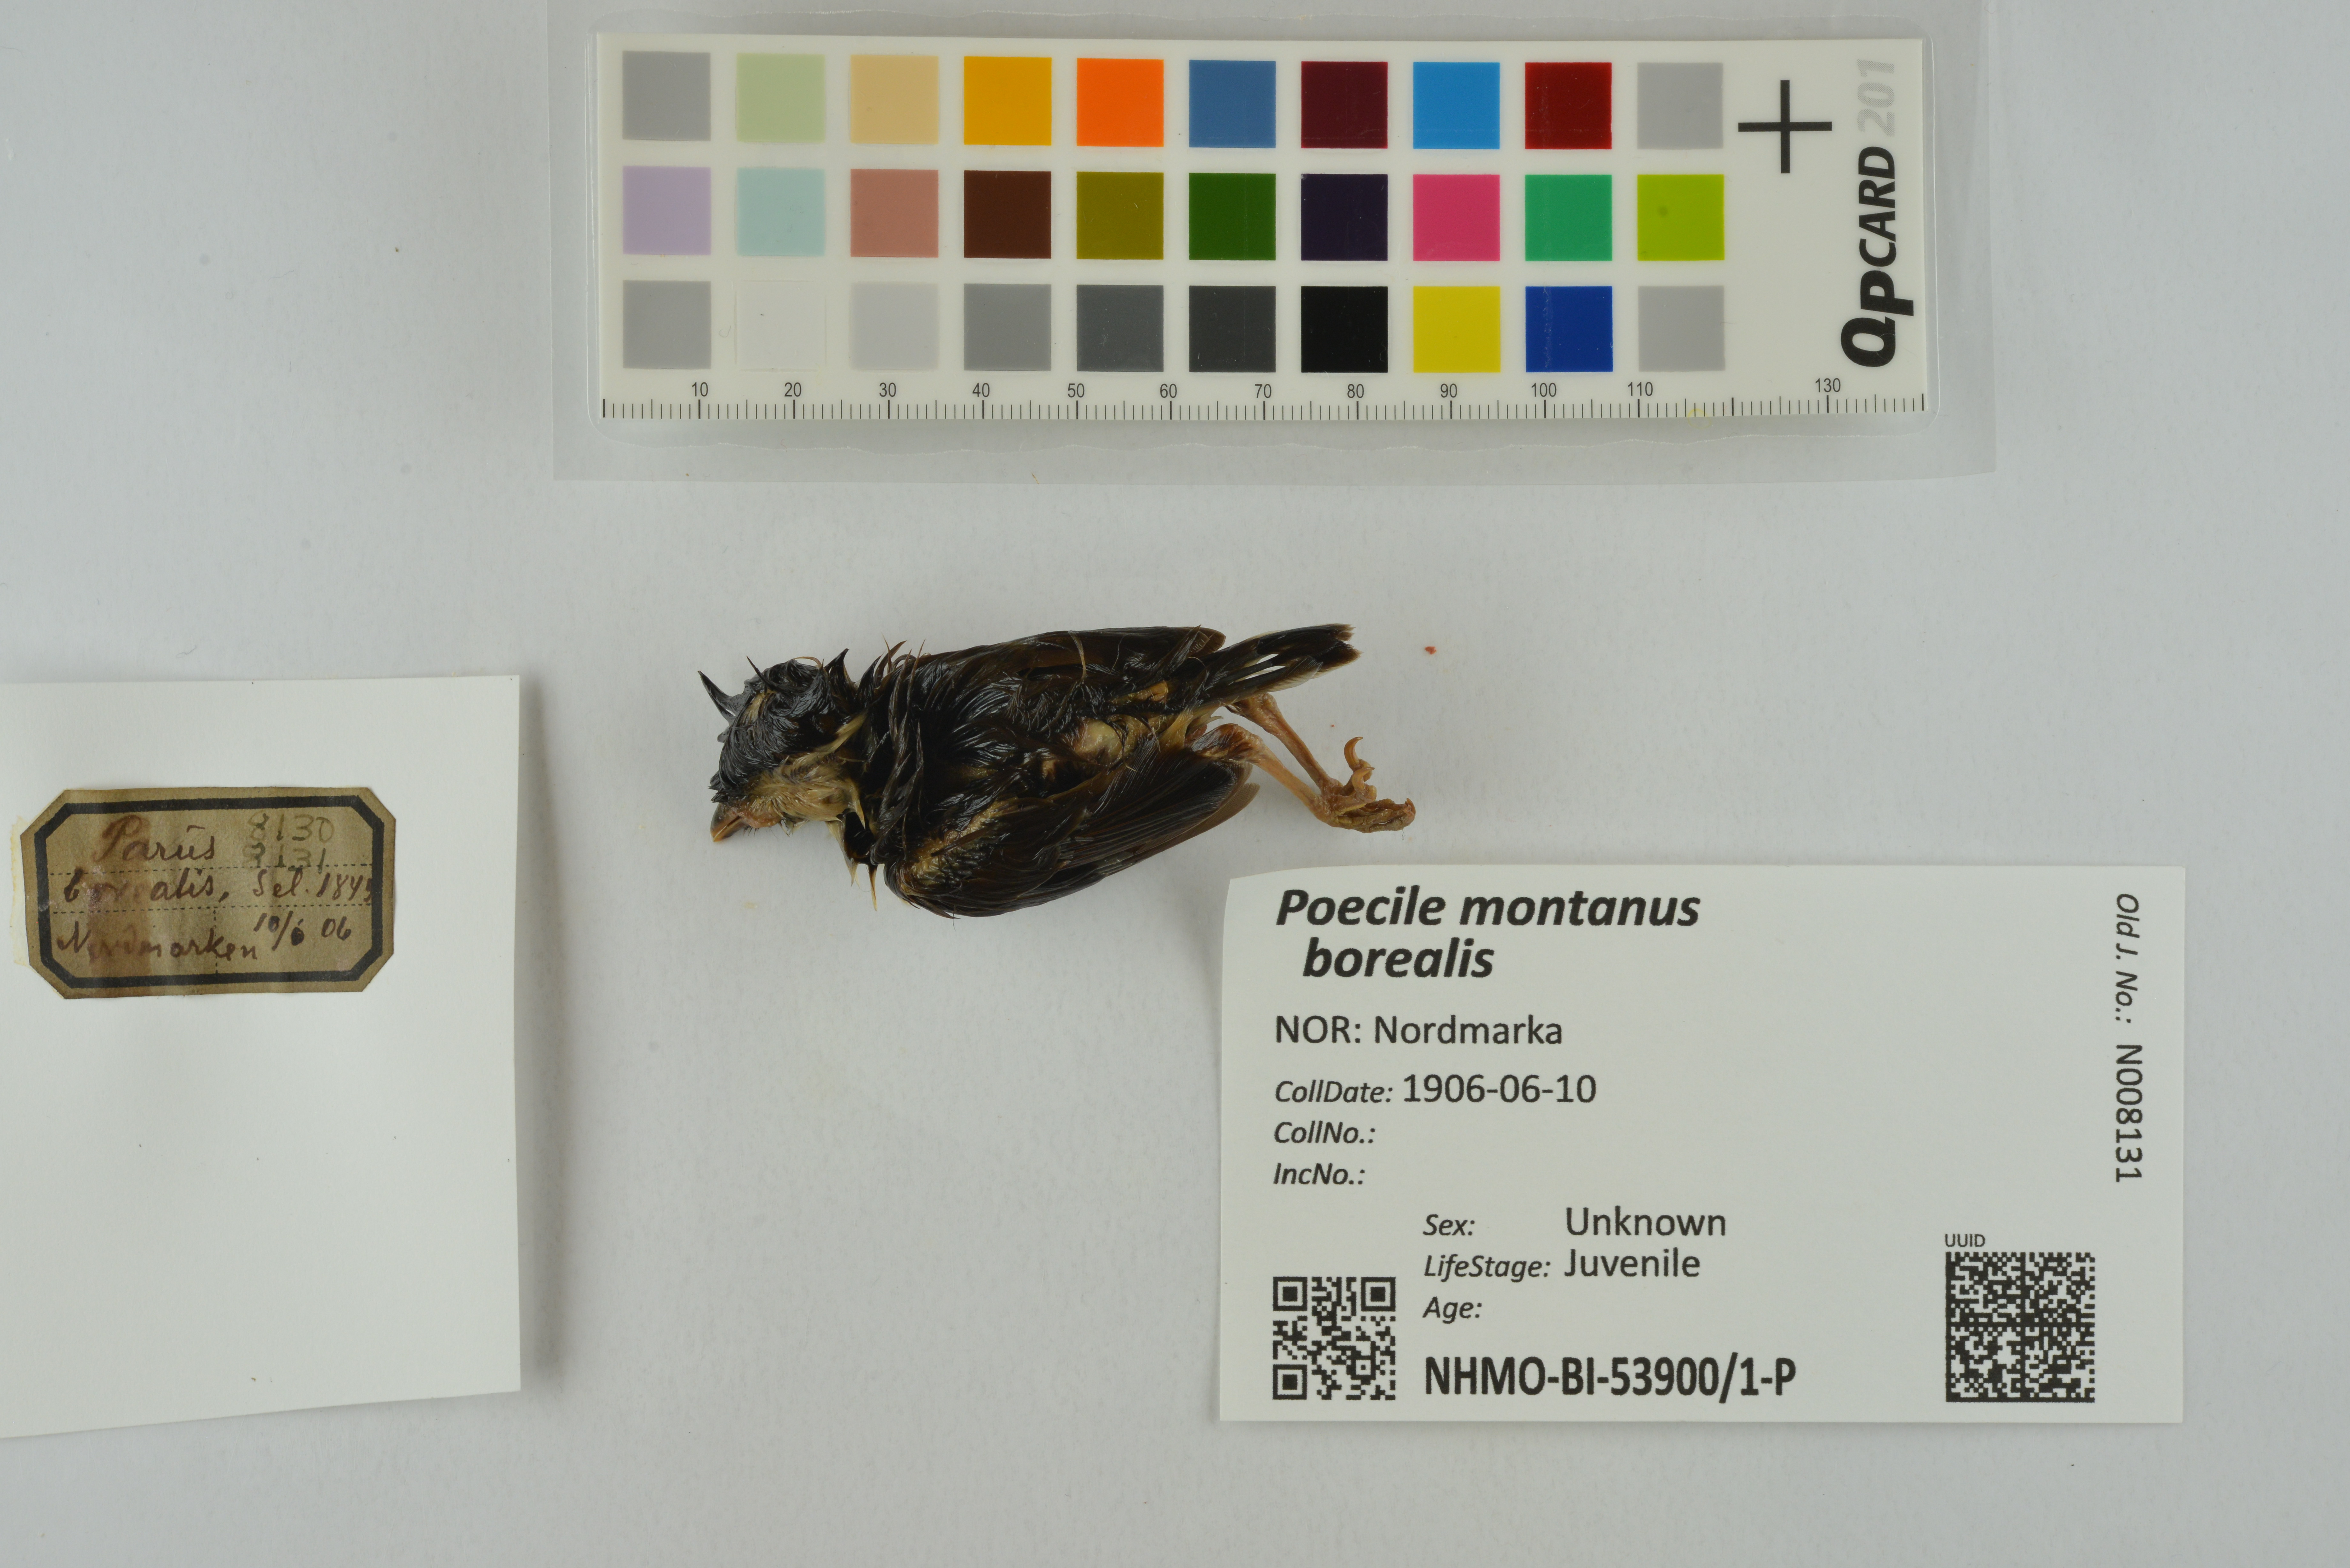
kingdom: Animalia
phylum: Chordata
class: Aves
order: Passeriformes
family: Paridae
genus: Poecile
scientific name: Poecile montanus
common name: Willow tit
